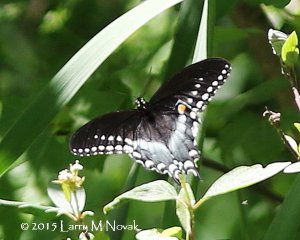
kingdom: Animalia
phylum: Arthropoda
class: Insecta
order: Lepidoptera
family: Papilionidae
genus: Pterourus
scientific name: Pterourus troilus
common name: Spicebush Swallowtail
